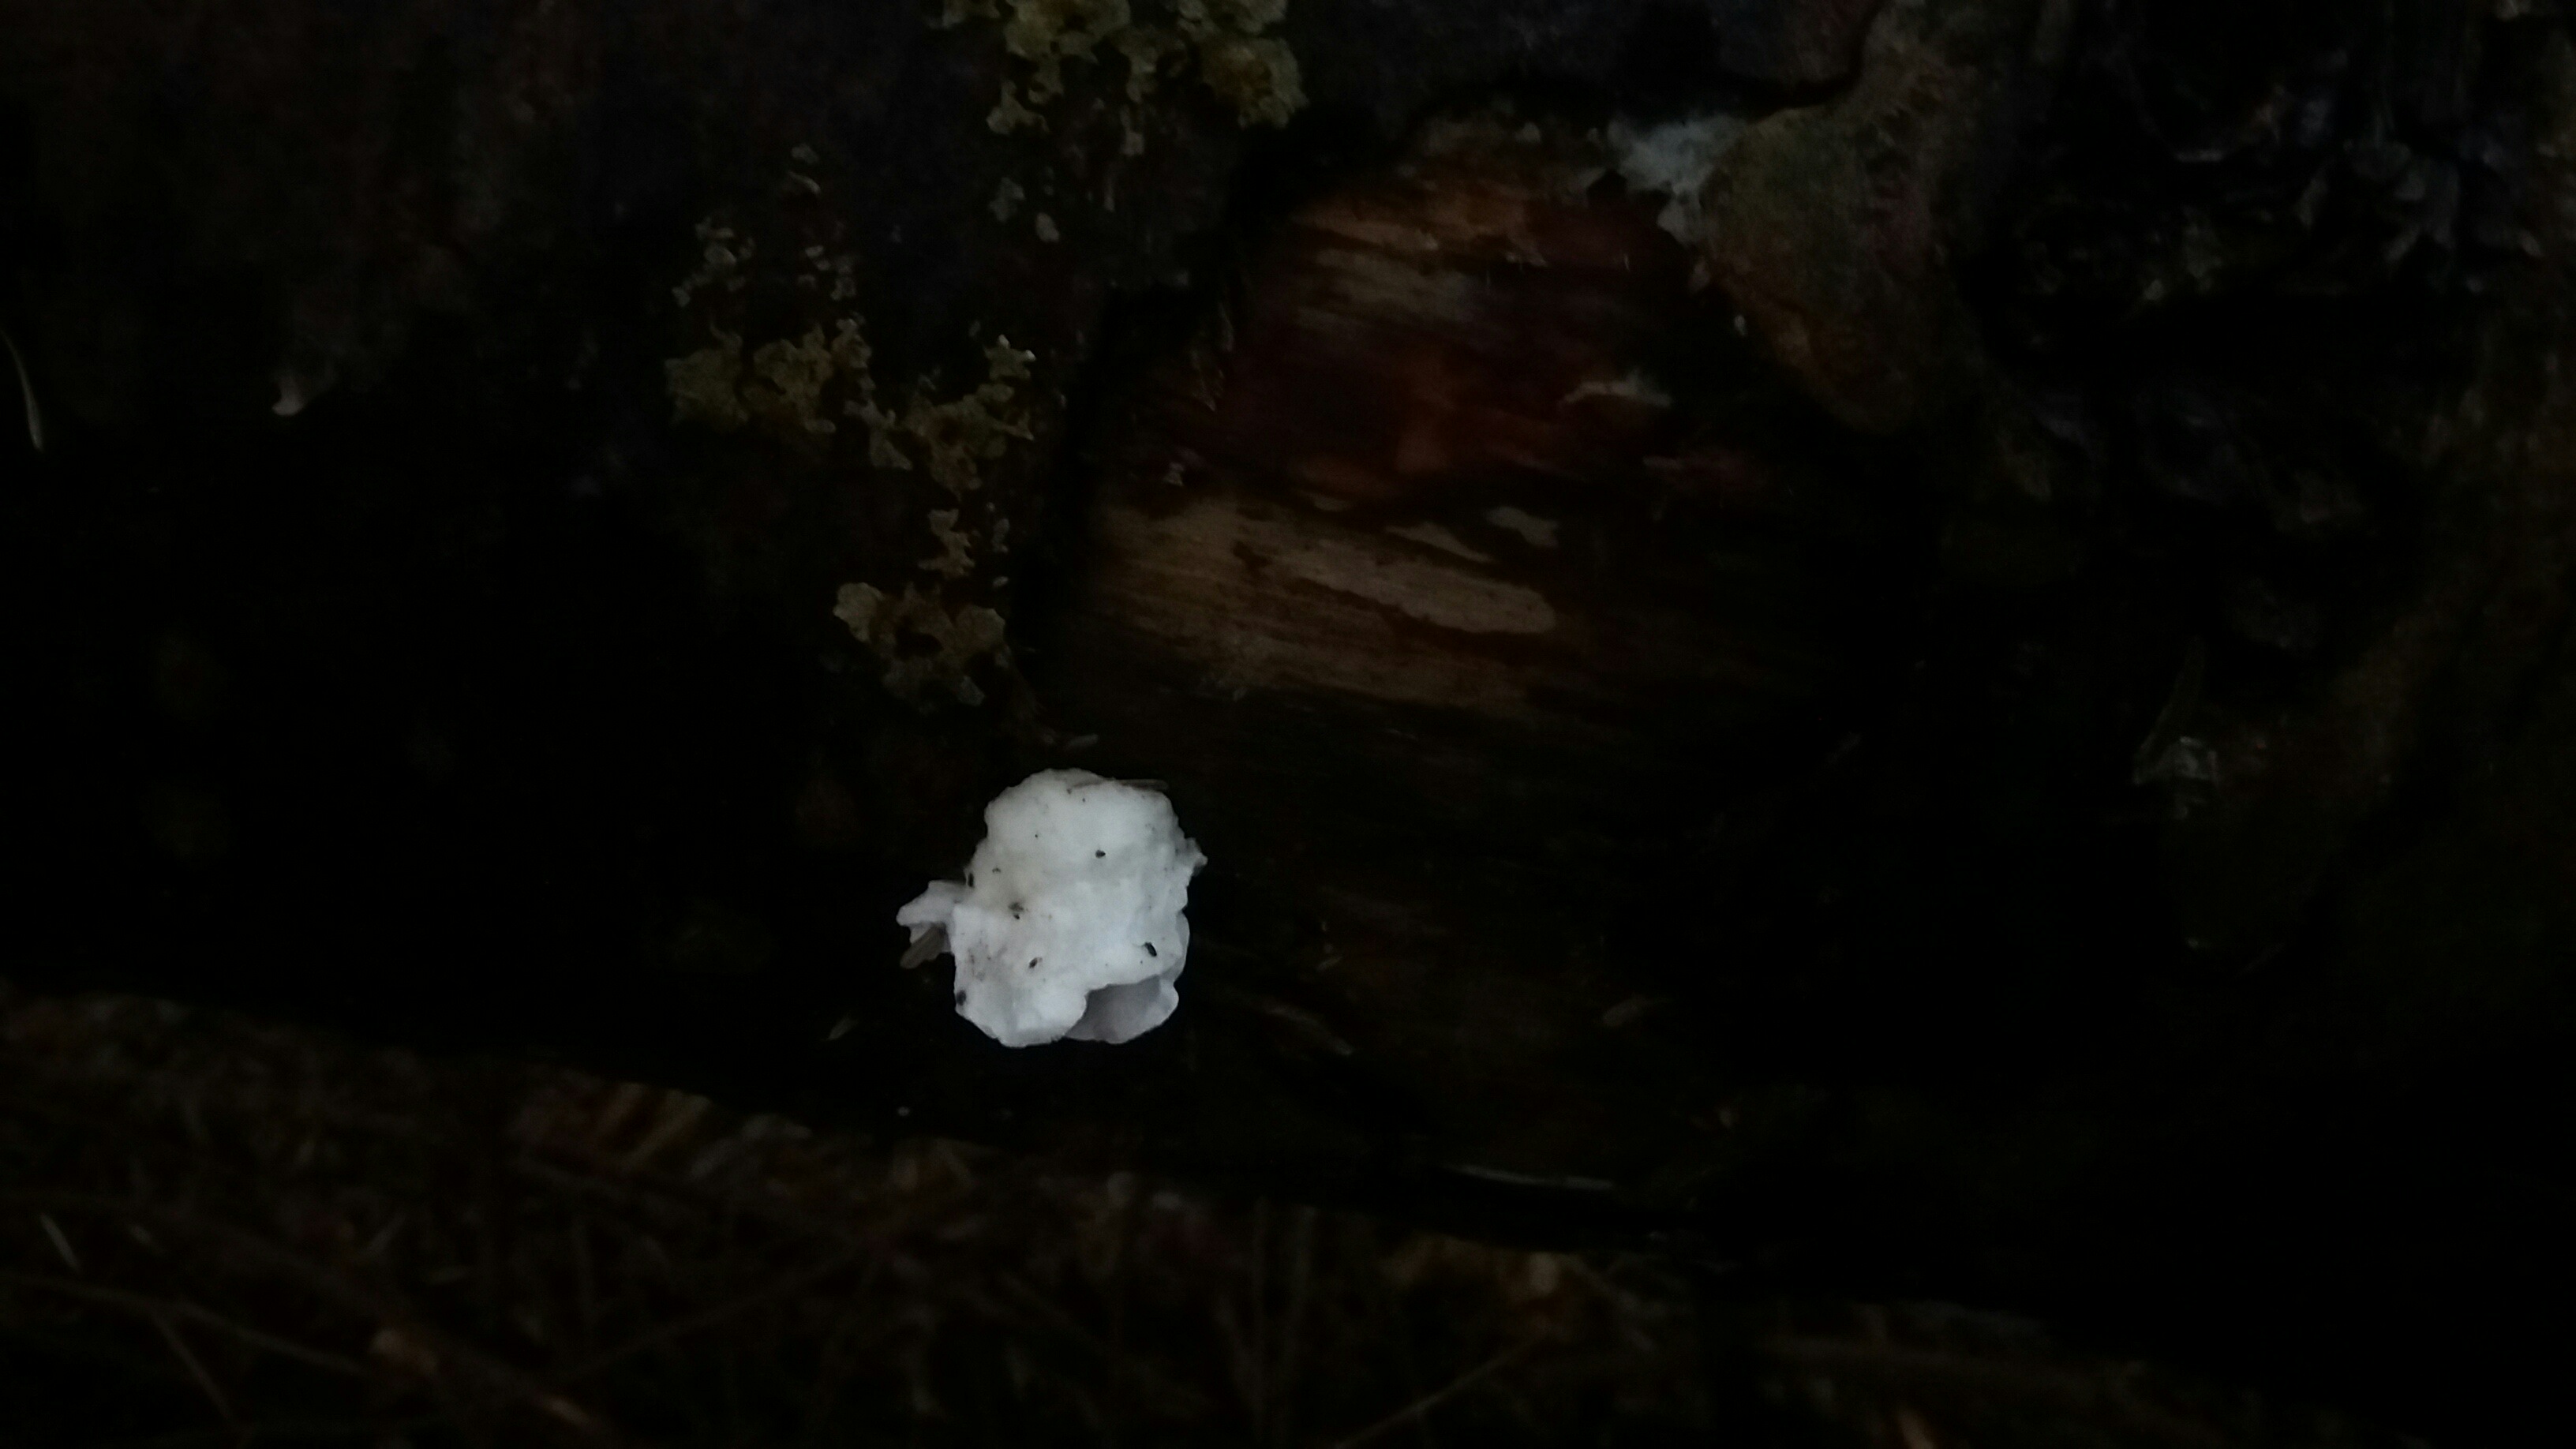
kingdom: Fungi
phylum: Basidiomycota
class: Agaricomycetes
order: Polyporales
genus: Amaropostia
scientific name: Amaropostia stiptica
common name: bitter kødporesvamp
